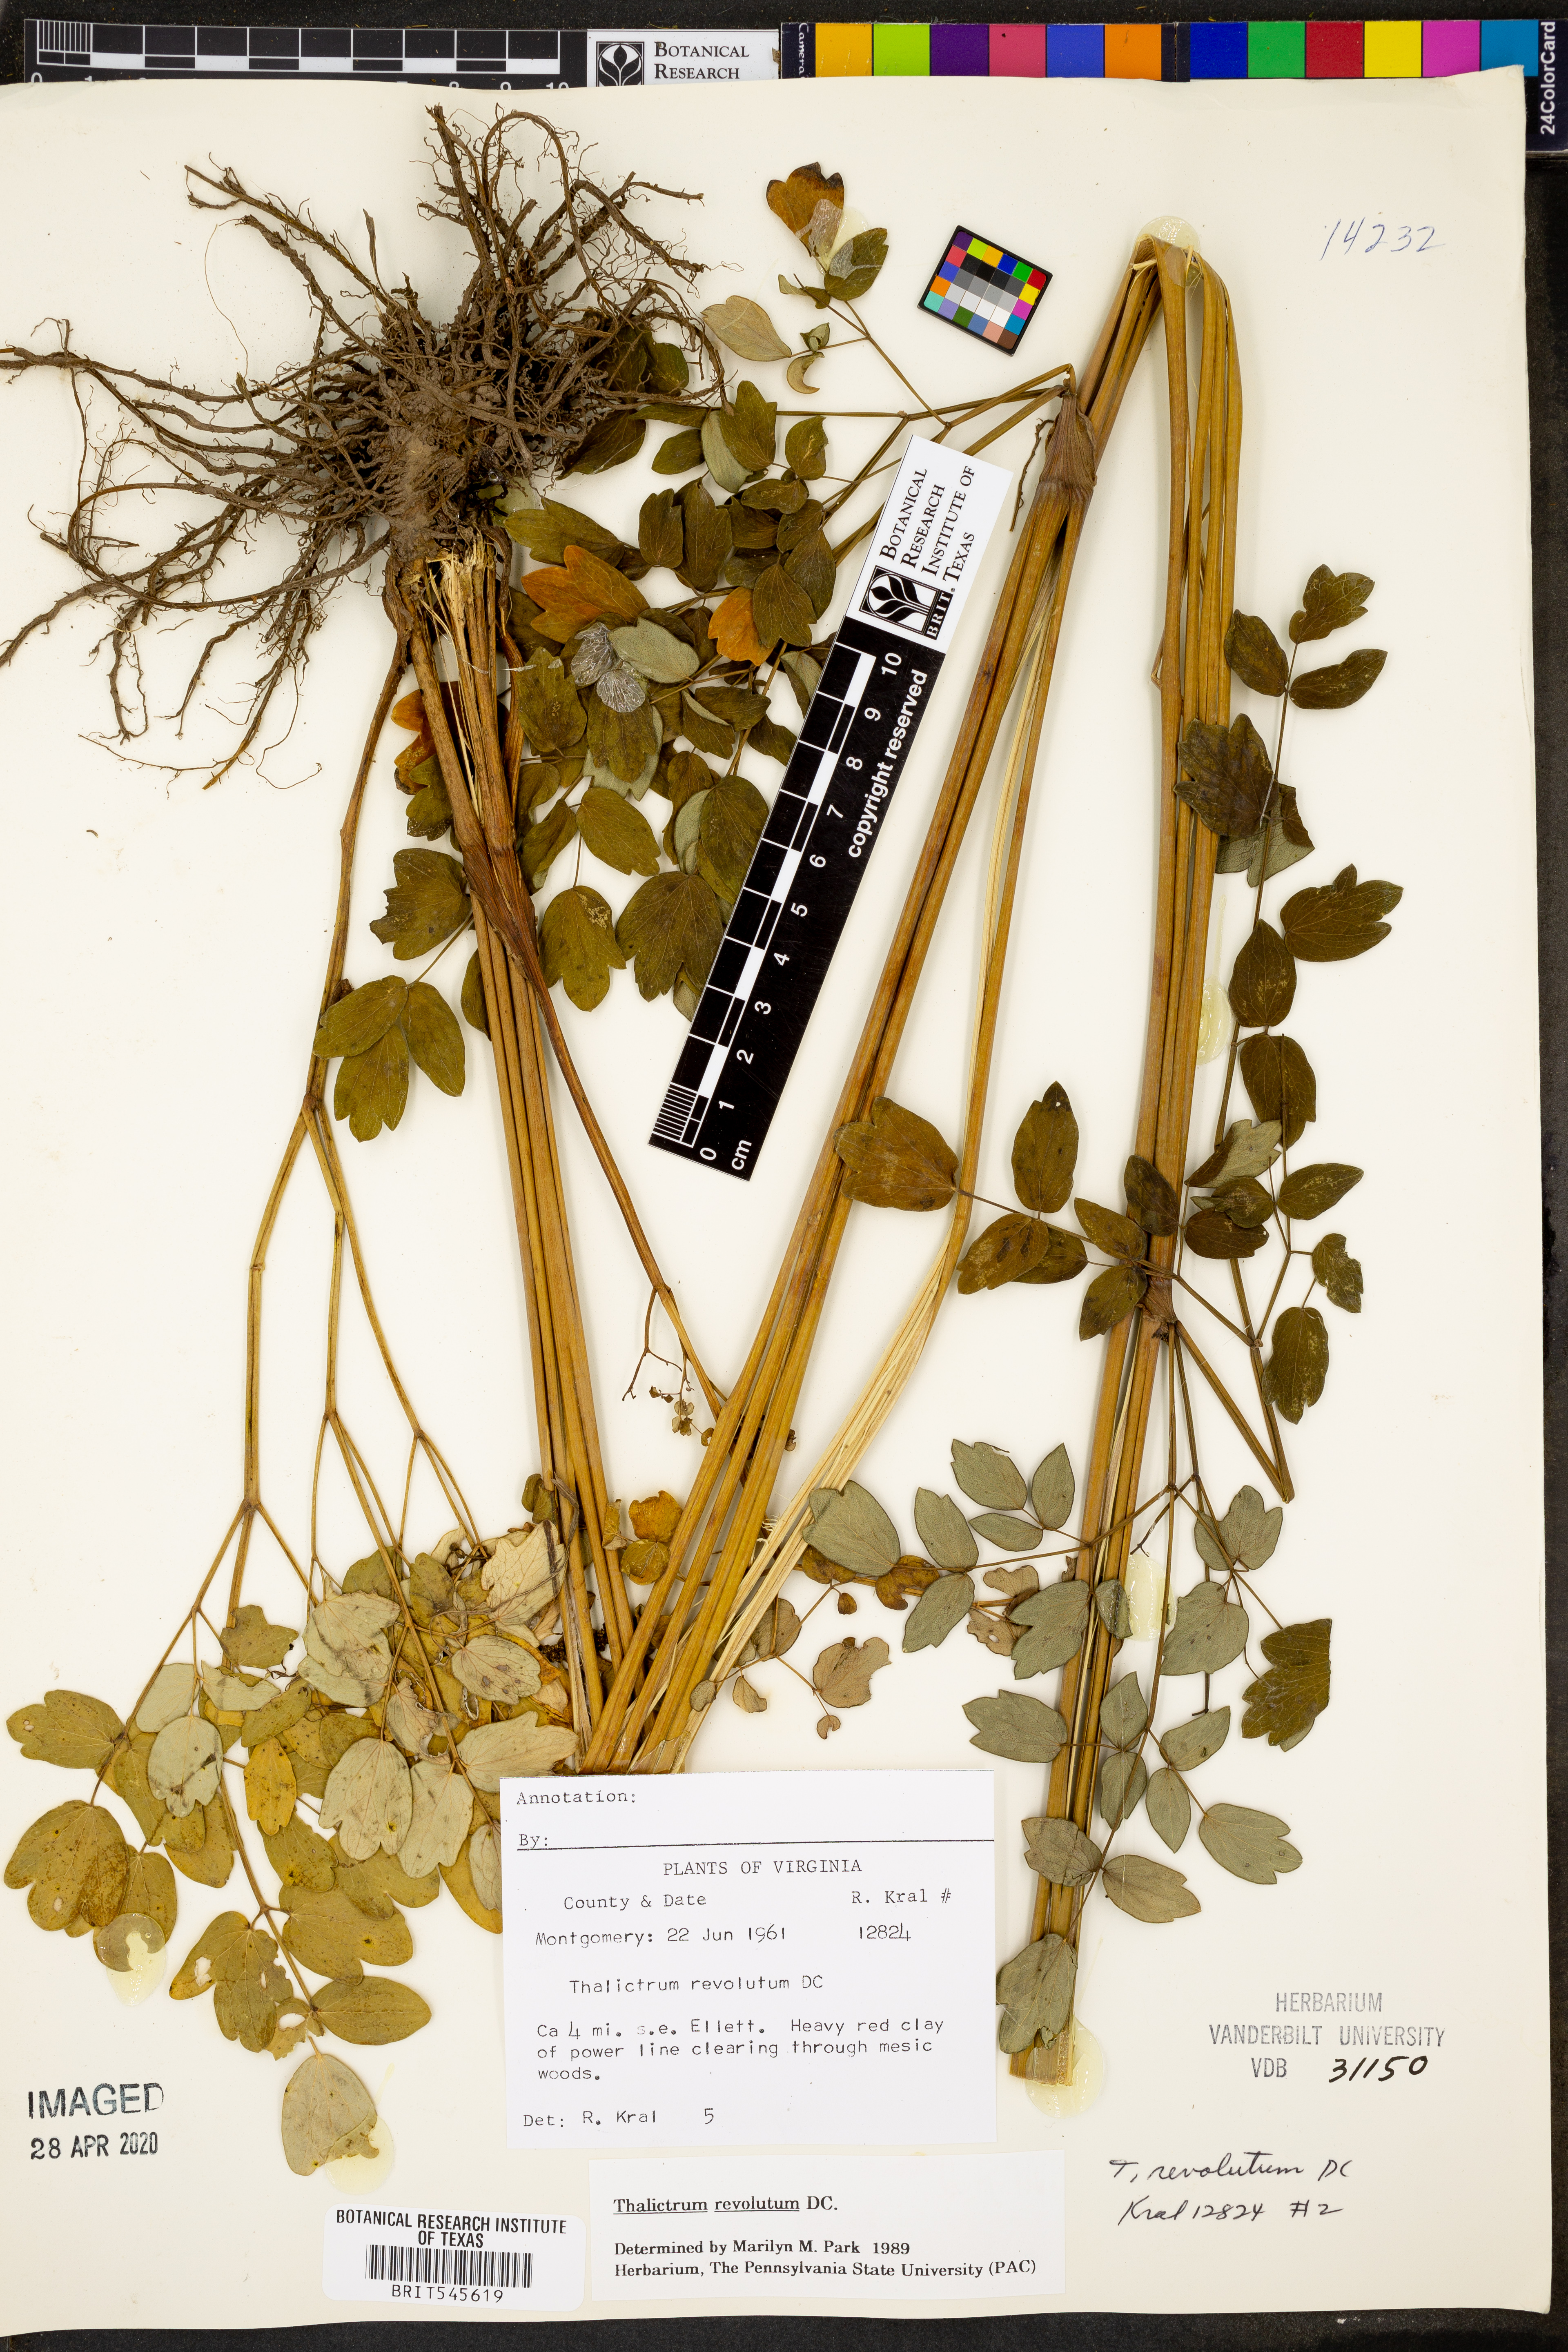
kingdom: Plantae
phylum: Tracheophyta
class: Magnoliopsida
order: Ranunculales
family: Ranunculaceae
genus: Thalictrum
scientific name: Thalictrum revolutum
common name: Waxy meadow-rue
